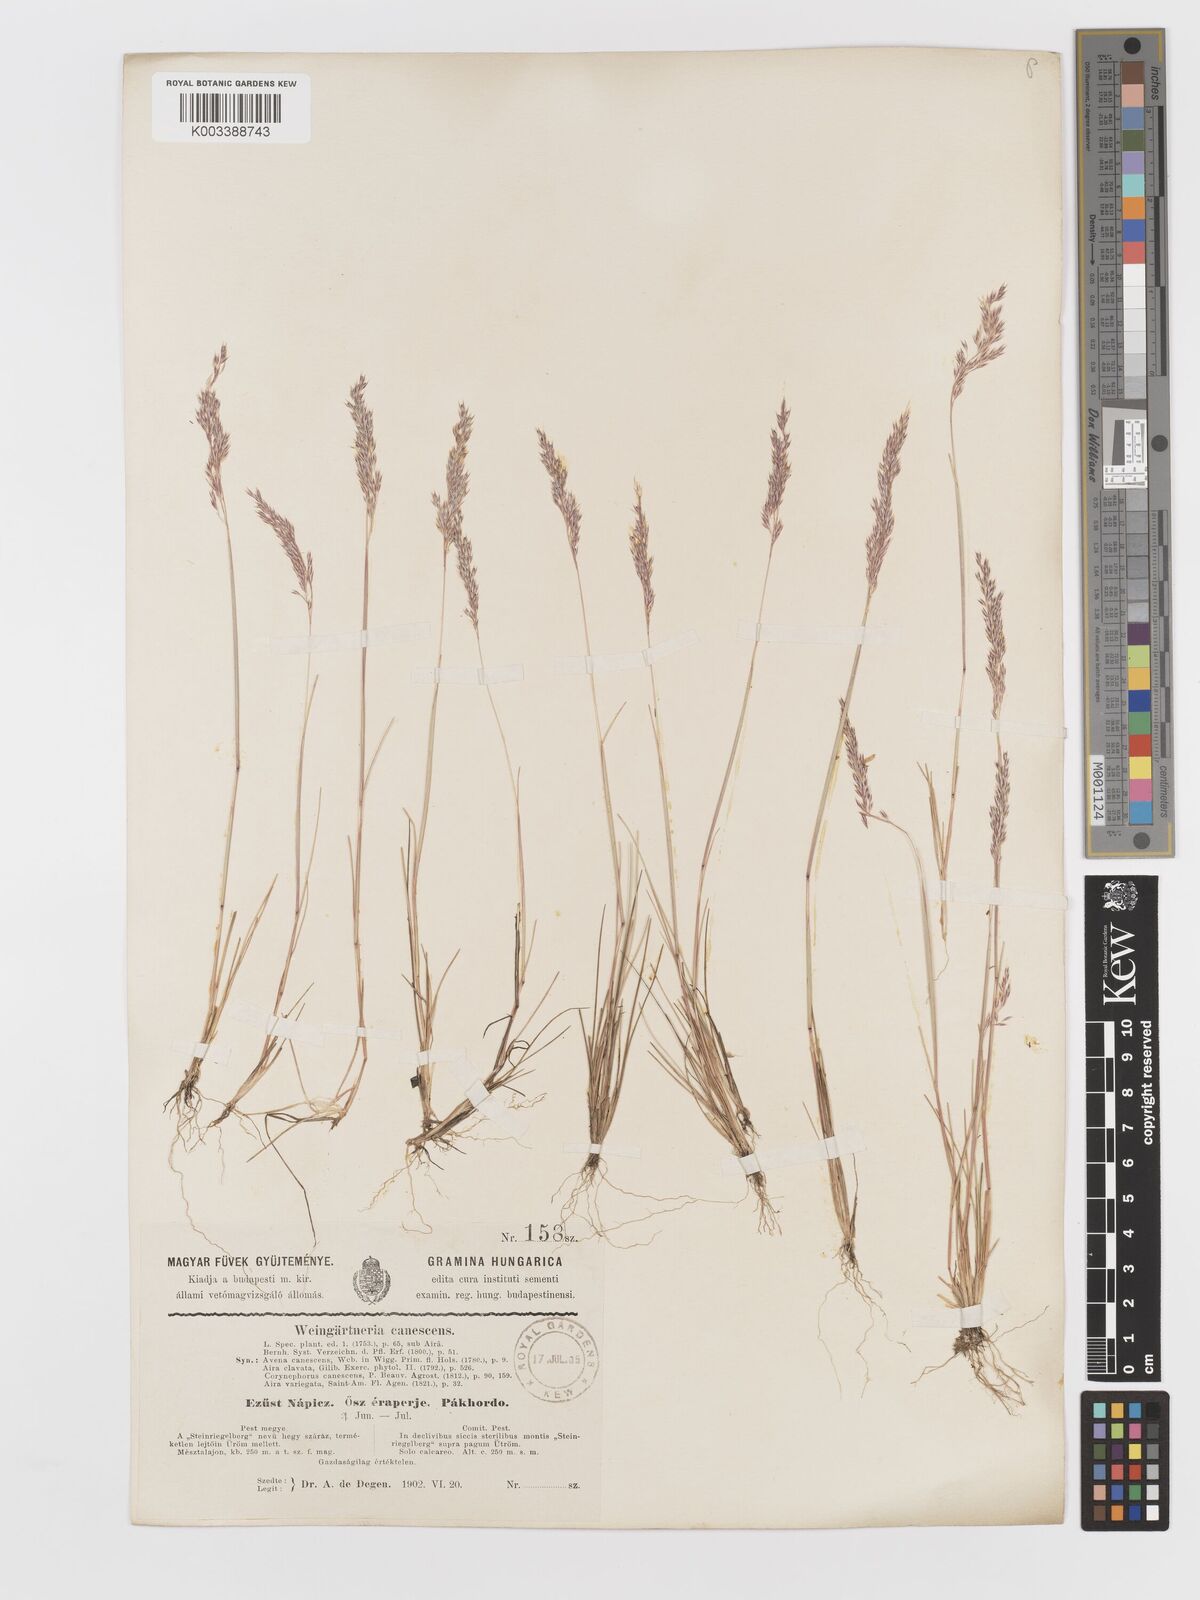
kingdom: Plantae
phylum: Tracheophyta
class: Liliopsida
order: Poales
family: Poaceae
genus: Corynephorus
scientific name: Corynephorus canescens
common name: Grey hair-grass
